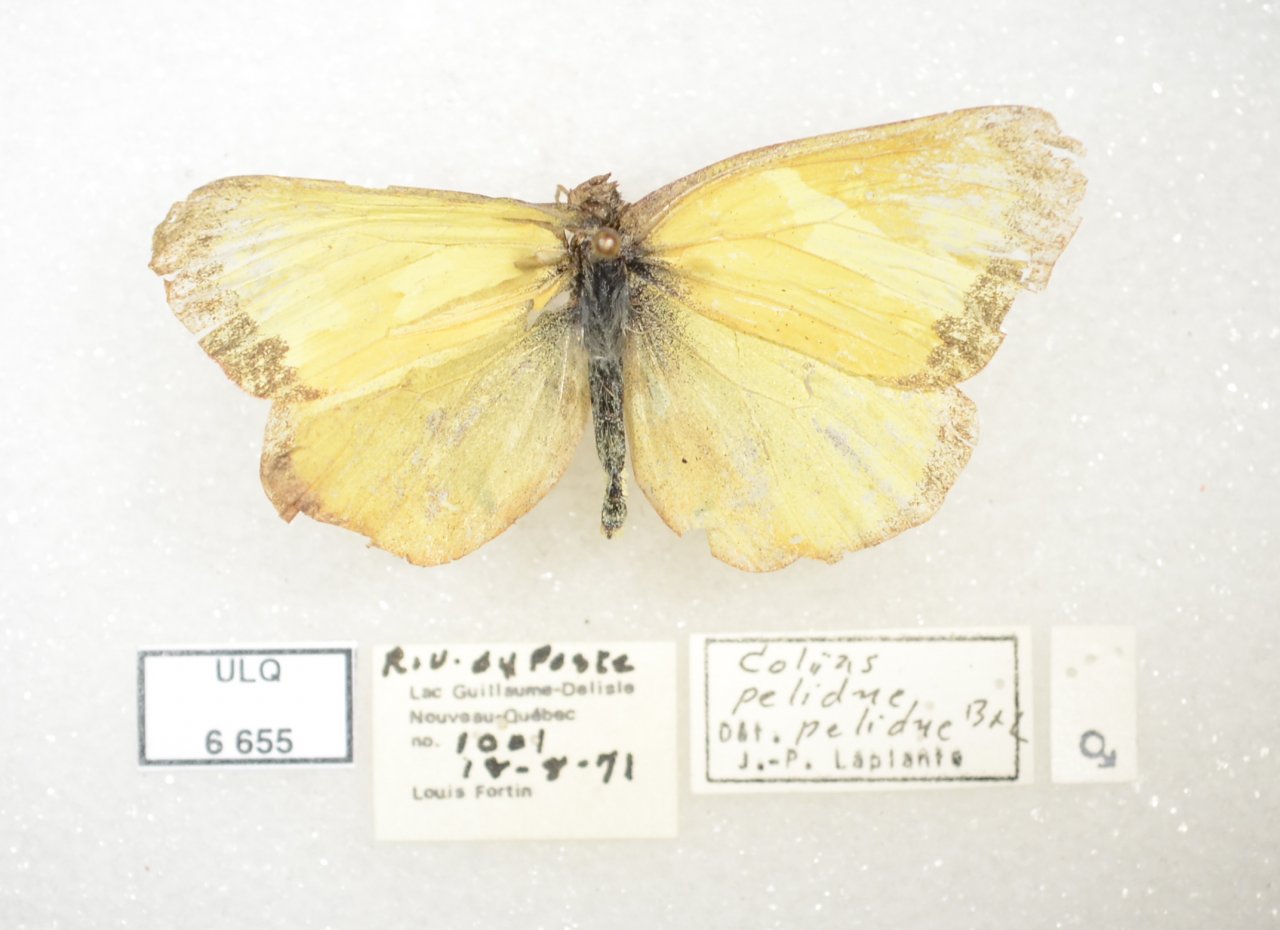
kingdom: Animalia
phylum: Arthropoda
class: Insecta
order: Lepidoptera
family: Pieridae
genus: Colias
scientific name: Colias palaeno
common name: Chippewa Sulphur
